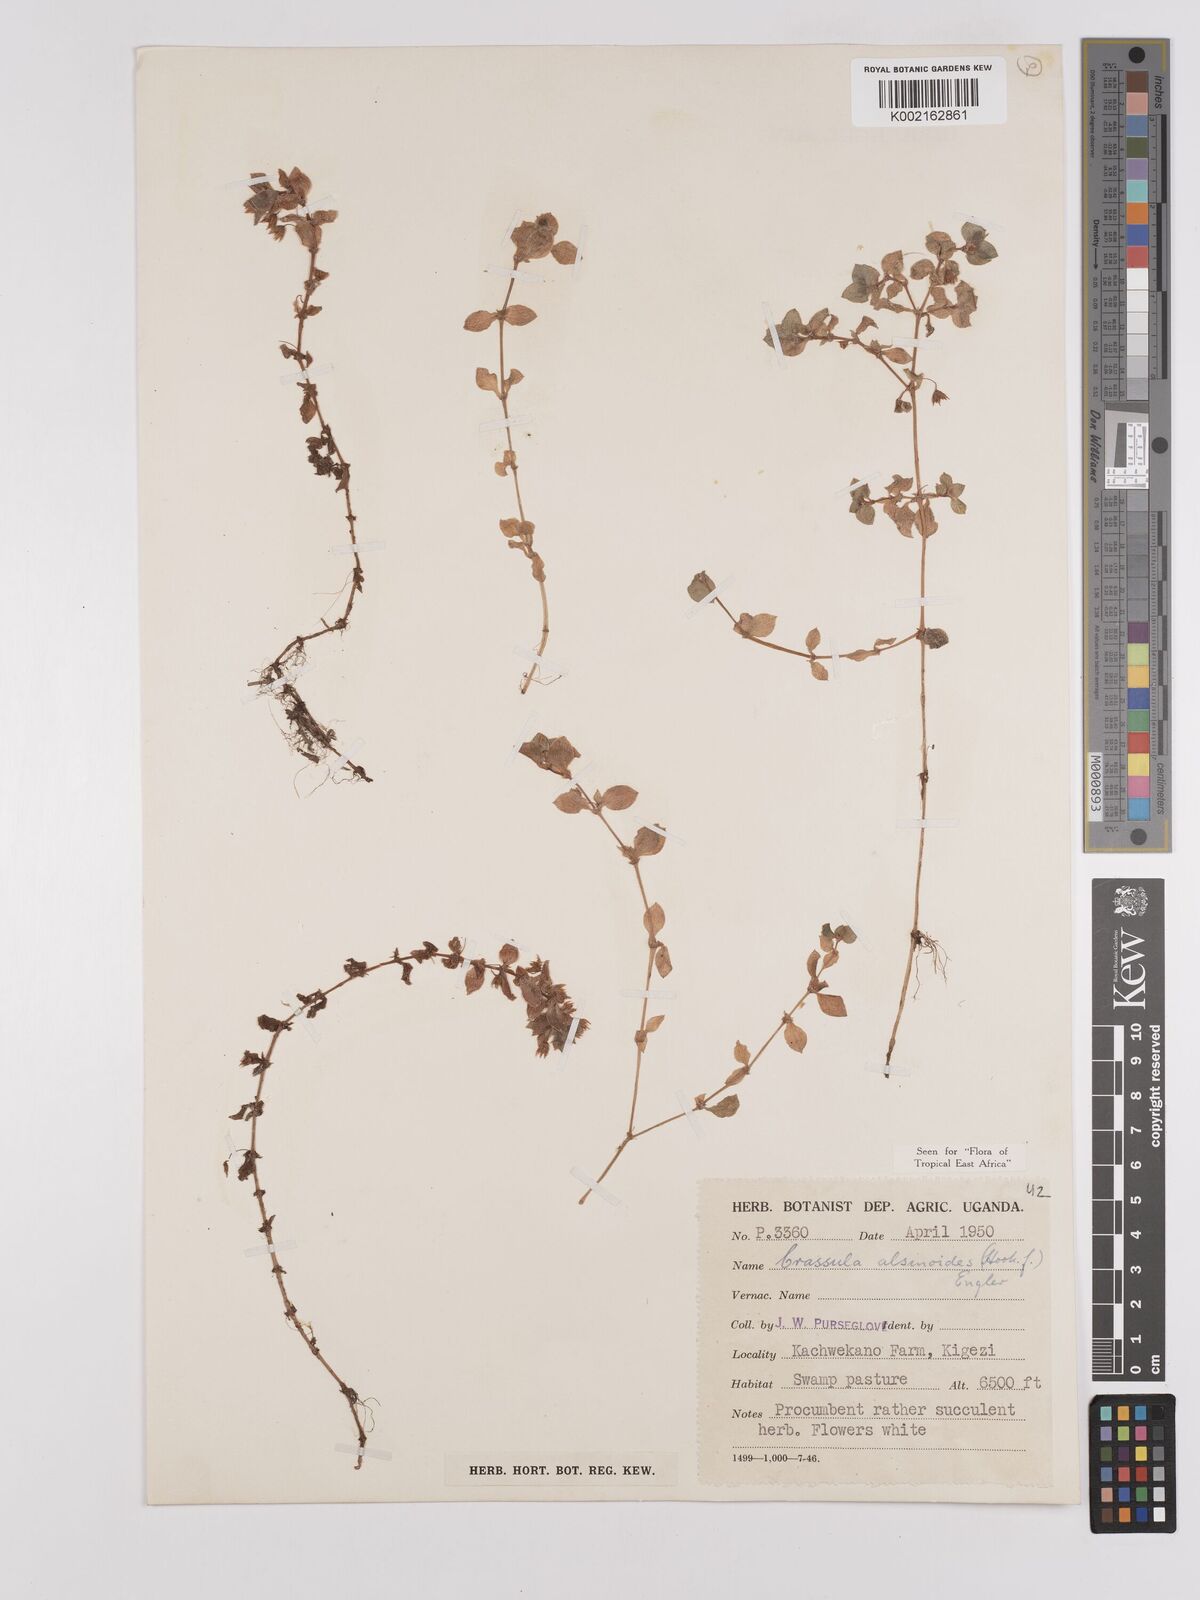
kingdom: Plantae
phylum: Tracheophyta
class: Magnoliopsida
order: Saxifragales
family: Crassulaceae
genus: Crassula
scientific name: Crassula alsinoides
